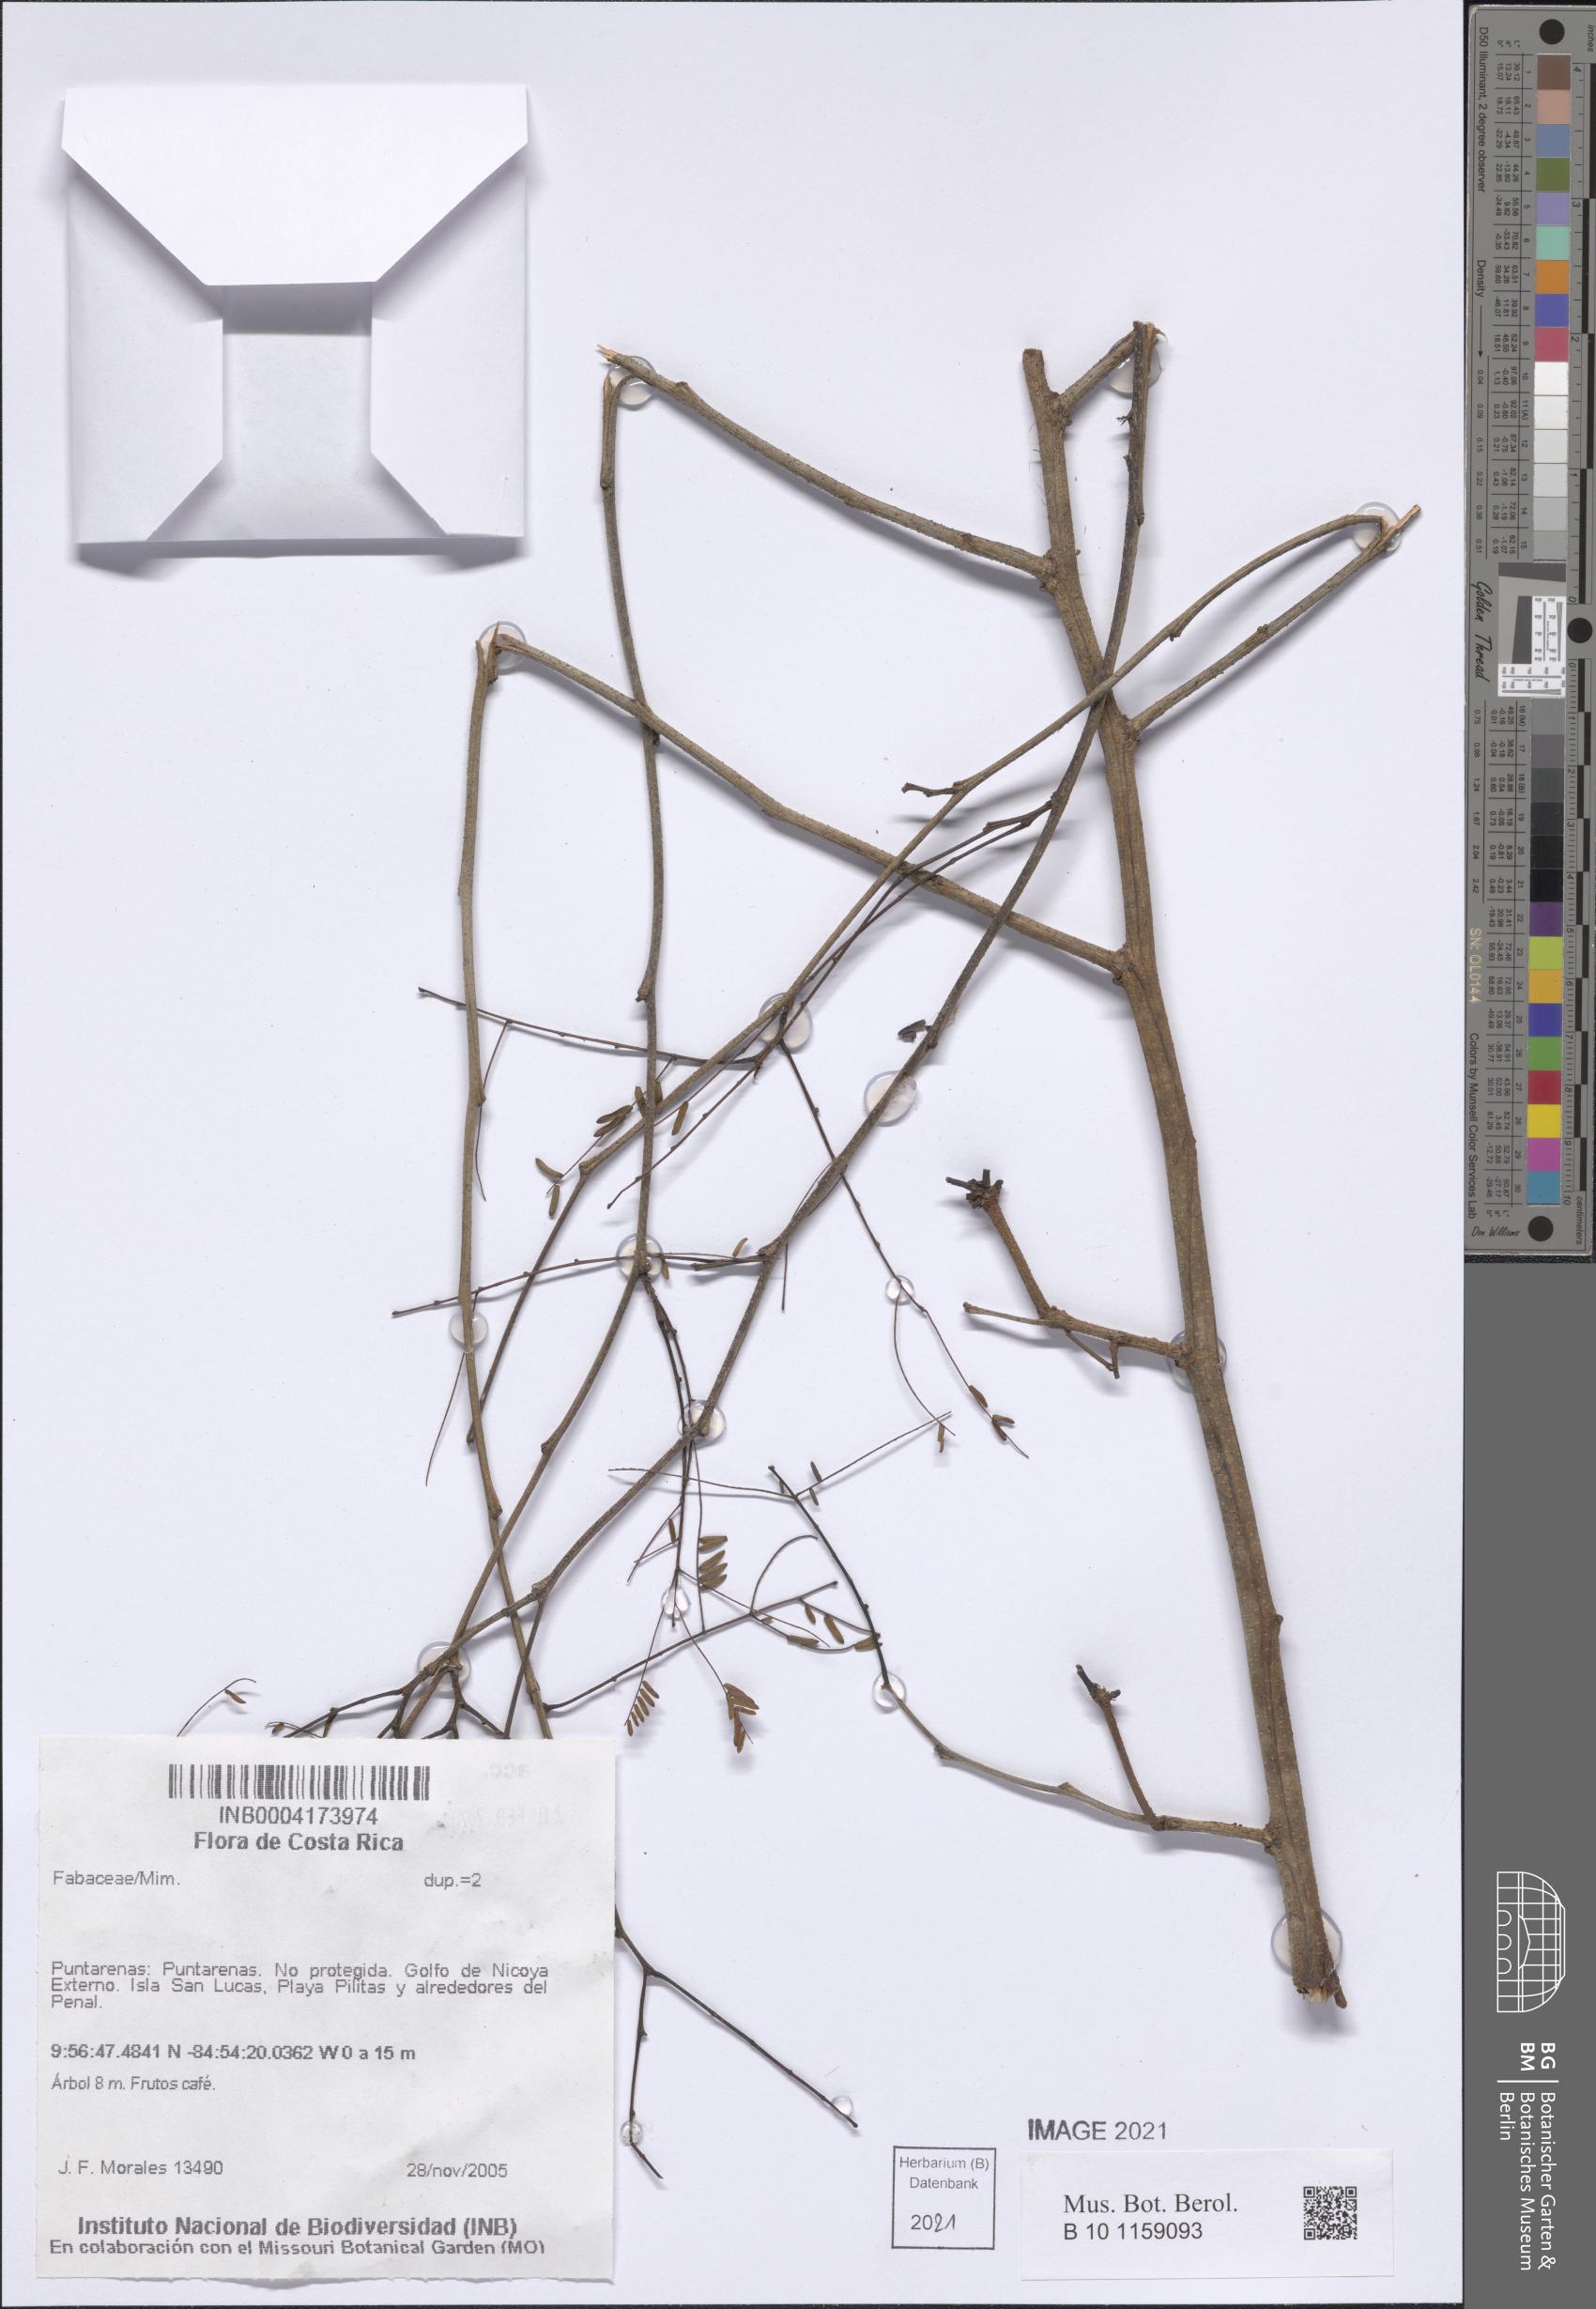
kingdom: Plantae
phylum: Tracheophyta
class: Magnoliopsida
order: Fabales
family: Fabaceae
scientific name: Fabaceae
